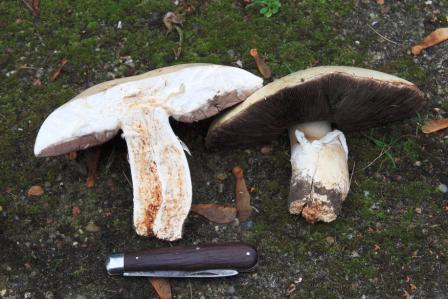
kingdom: Fungi
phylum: Basidiomycota
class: Agaricomycetes
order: Agaricales
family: Agaricaceae
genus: Agaricus
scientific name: Agaricus crocodilinus
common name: landsby-champignon
